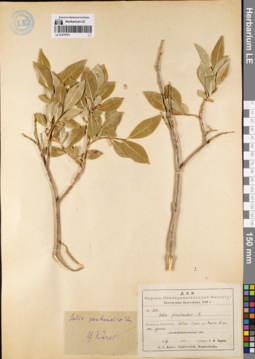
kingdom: Plantae
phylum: Tracheophyta
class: Magnoliopsida
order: Malpighiales
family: Salicaceae
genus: Salix
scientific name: Salix pseudopentandra
